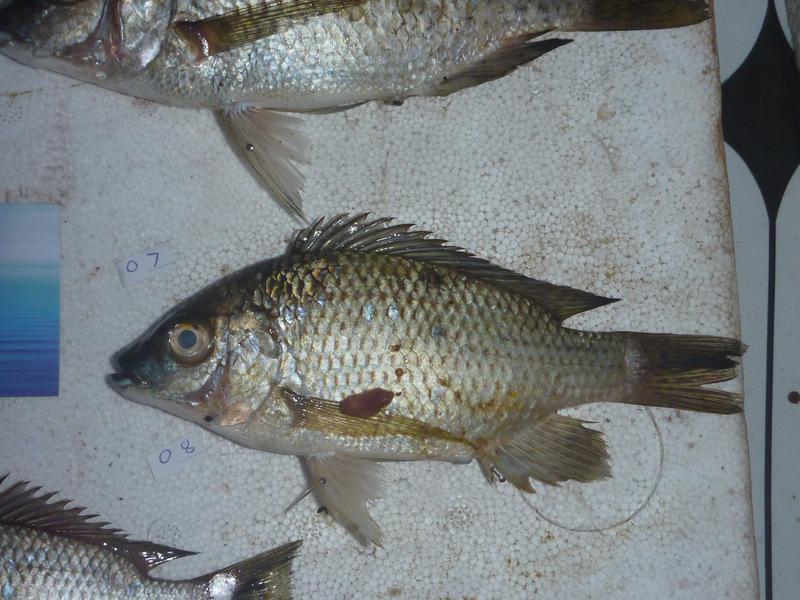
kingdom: Animalia
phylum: Chordata
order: Perciformes
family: Cichlidae
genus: Oreochromis
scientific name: Oreochromis karomo
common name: Karomo
